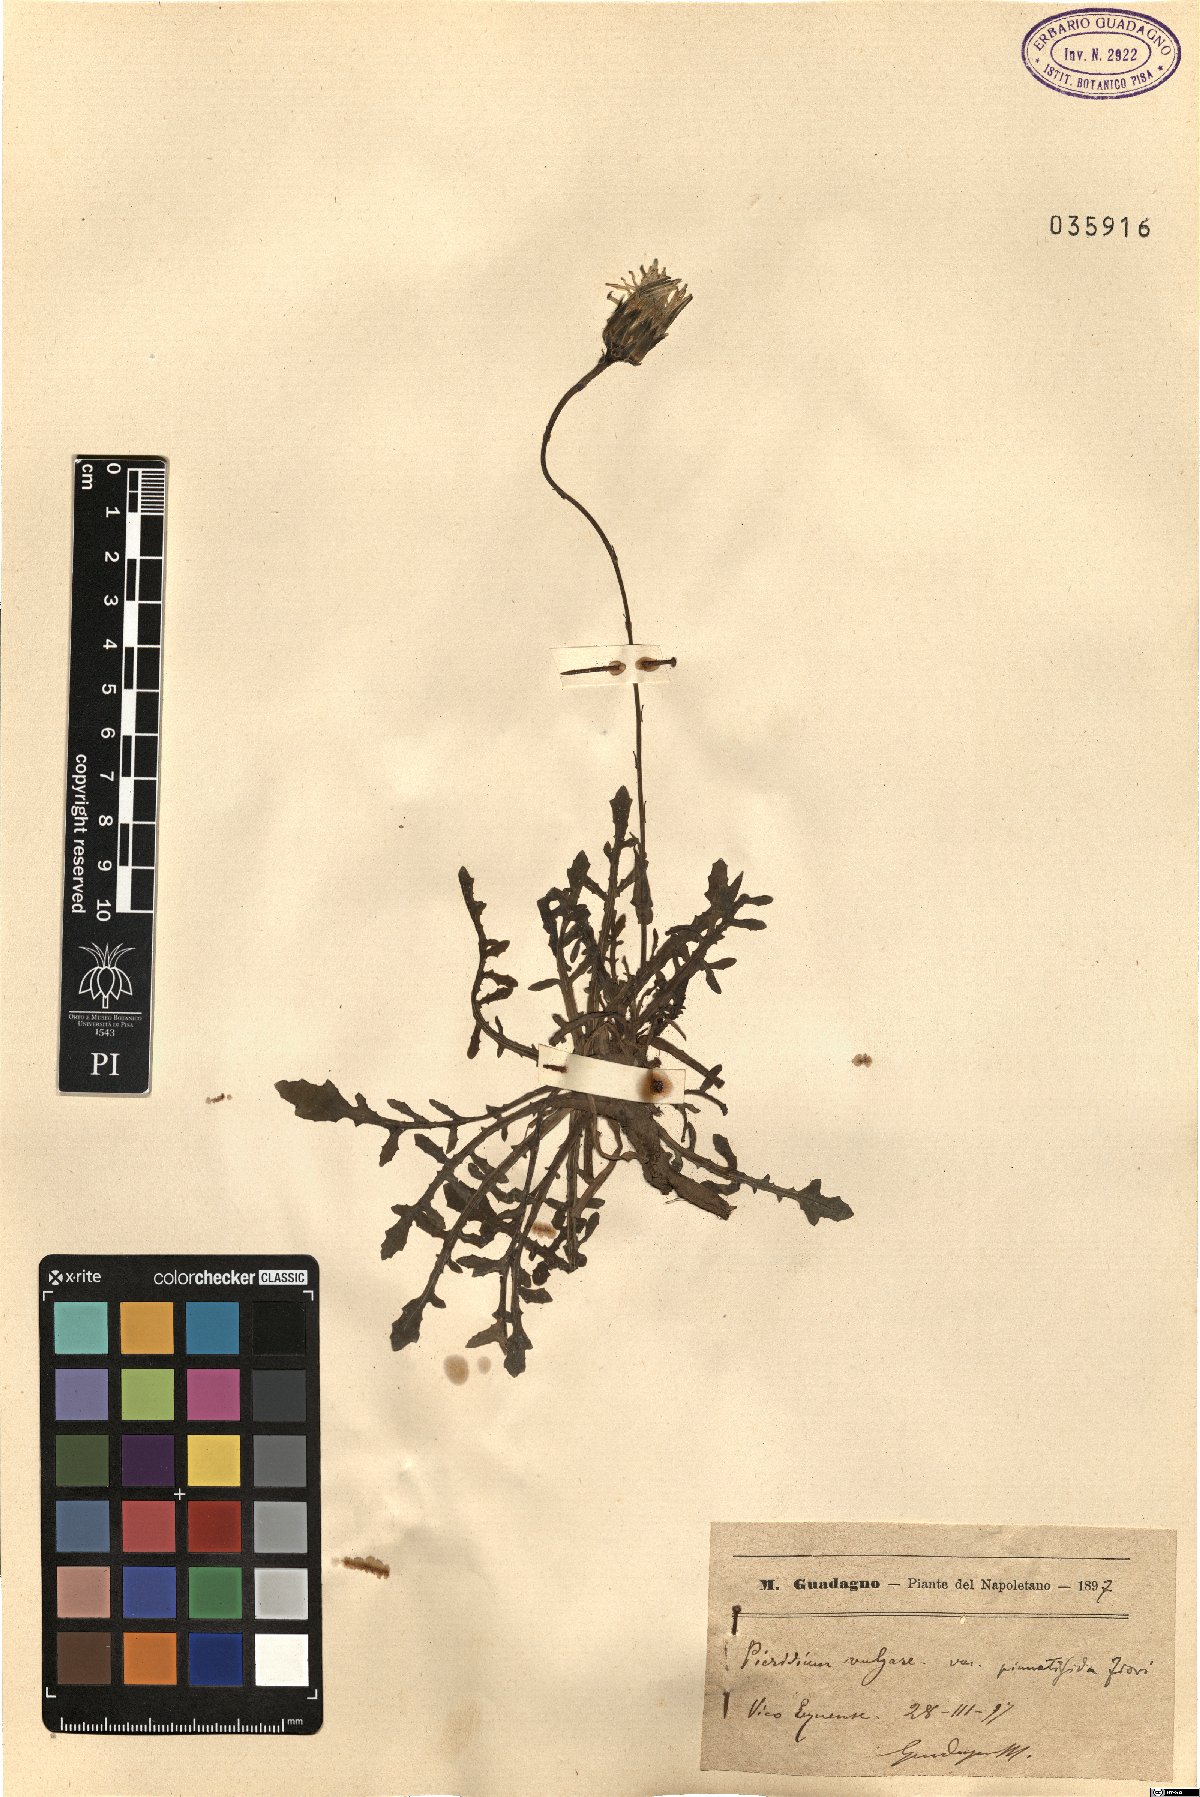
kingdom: Plantae
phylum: Tracheophyta
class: Magnoliopsida
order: Asterales
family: Asteraceae
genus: Reichardia
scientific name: Reichardia picroides
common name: Common brighteyes
